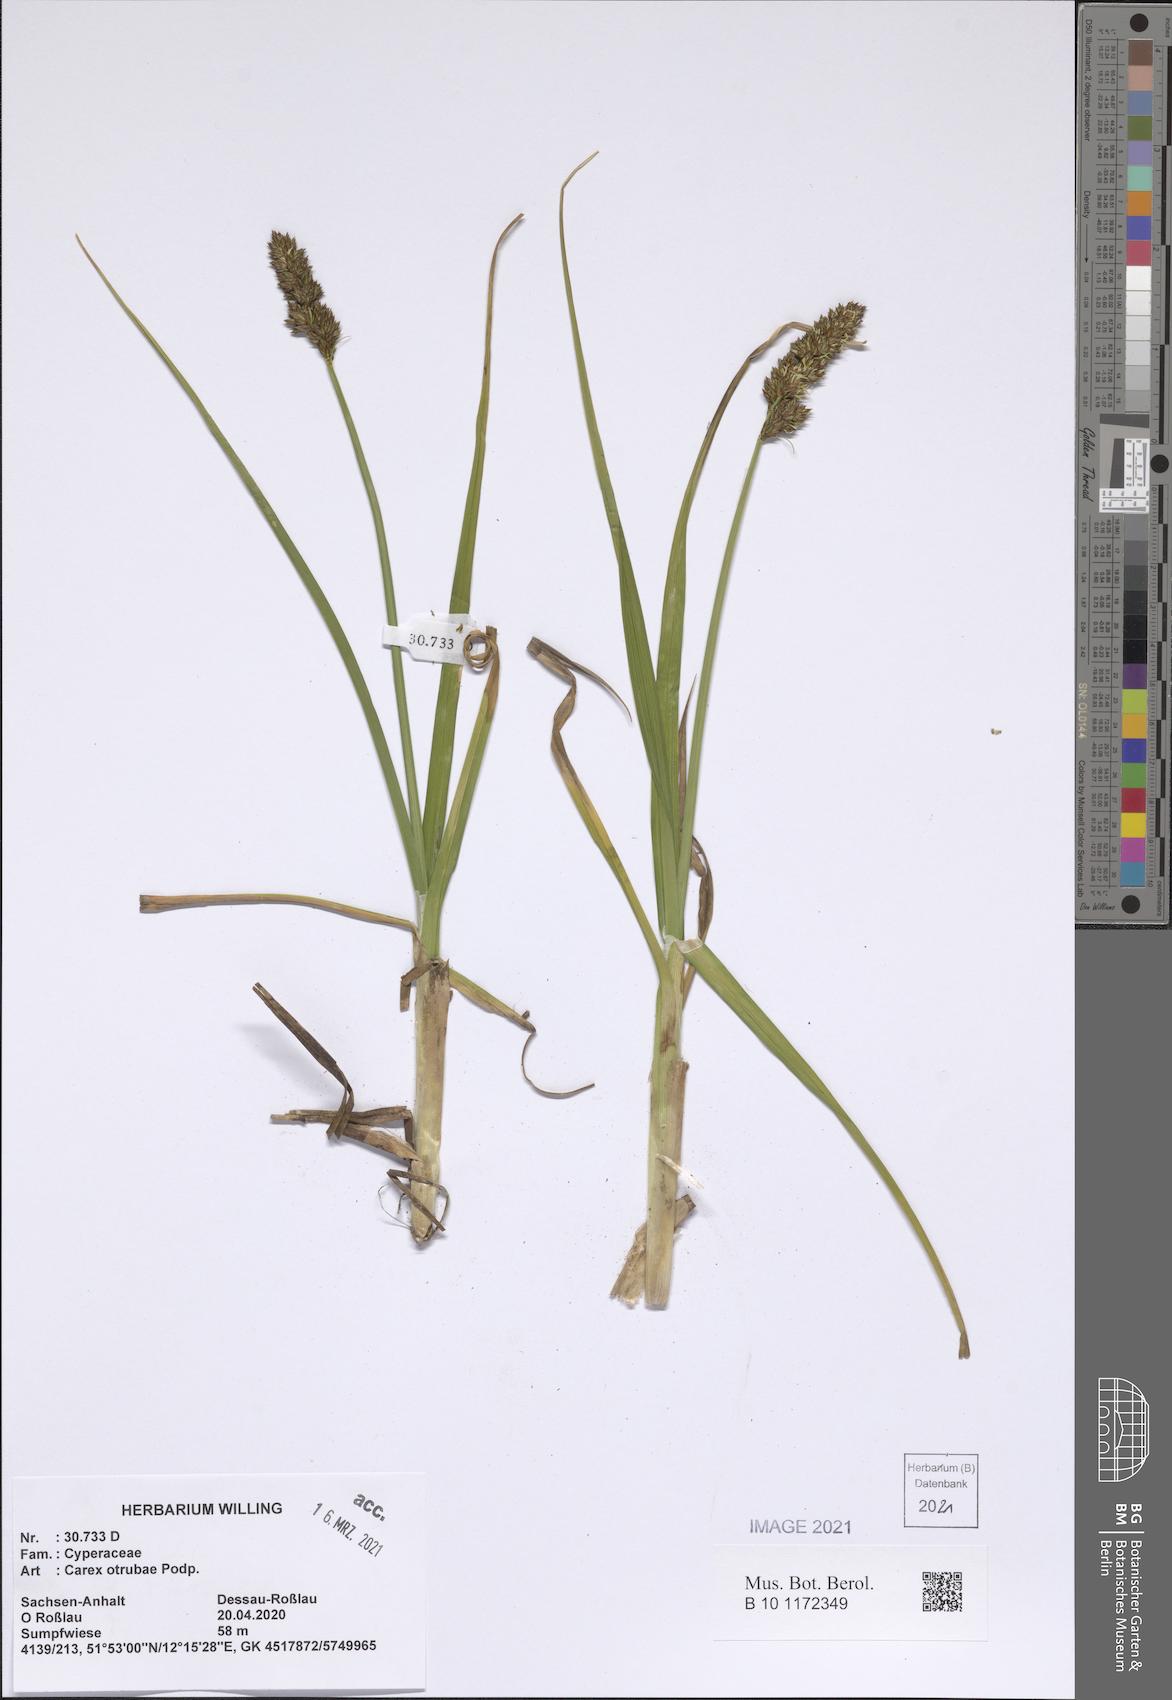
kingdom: Plantae
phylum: Tracheophyta
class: Liliopsida
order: Poales
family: Cyperaceae
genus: Carex
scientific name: Carex otrubae
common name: False fox-sedge
